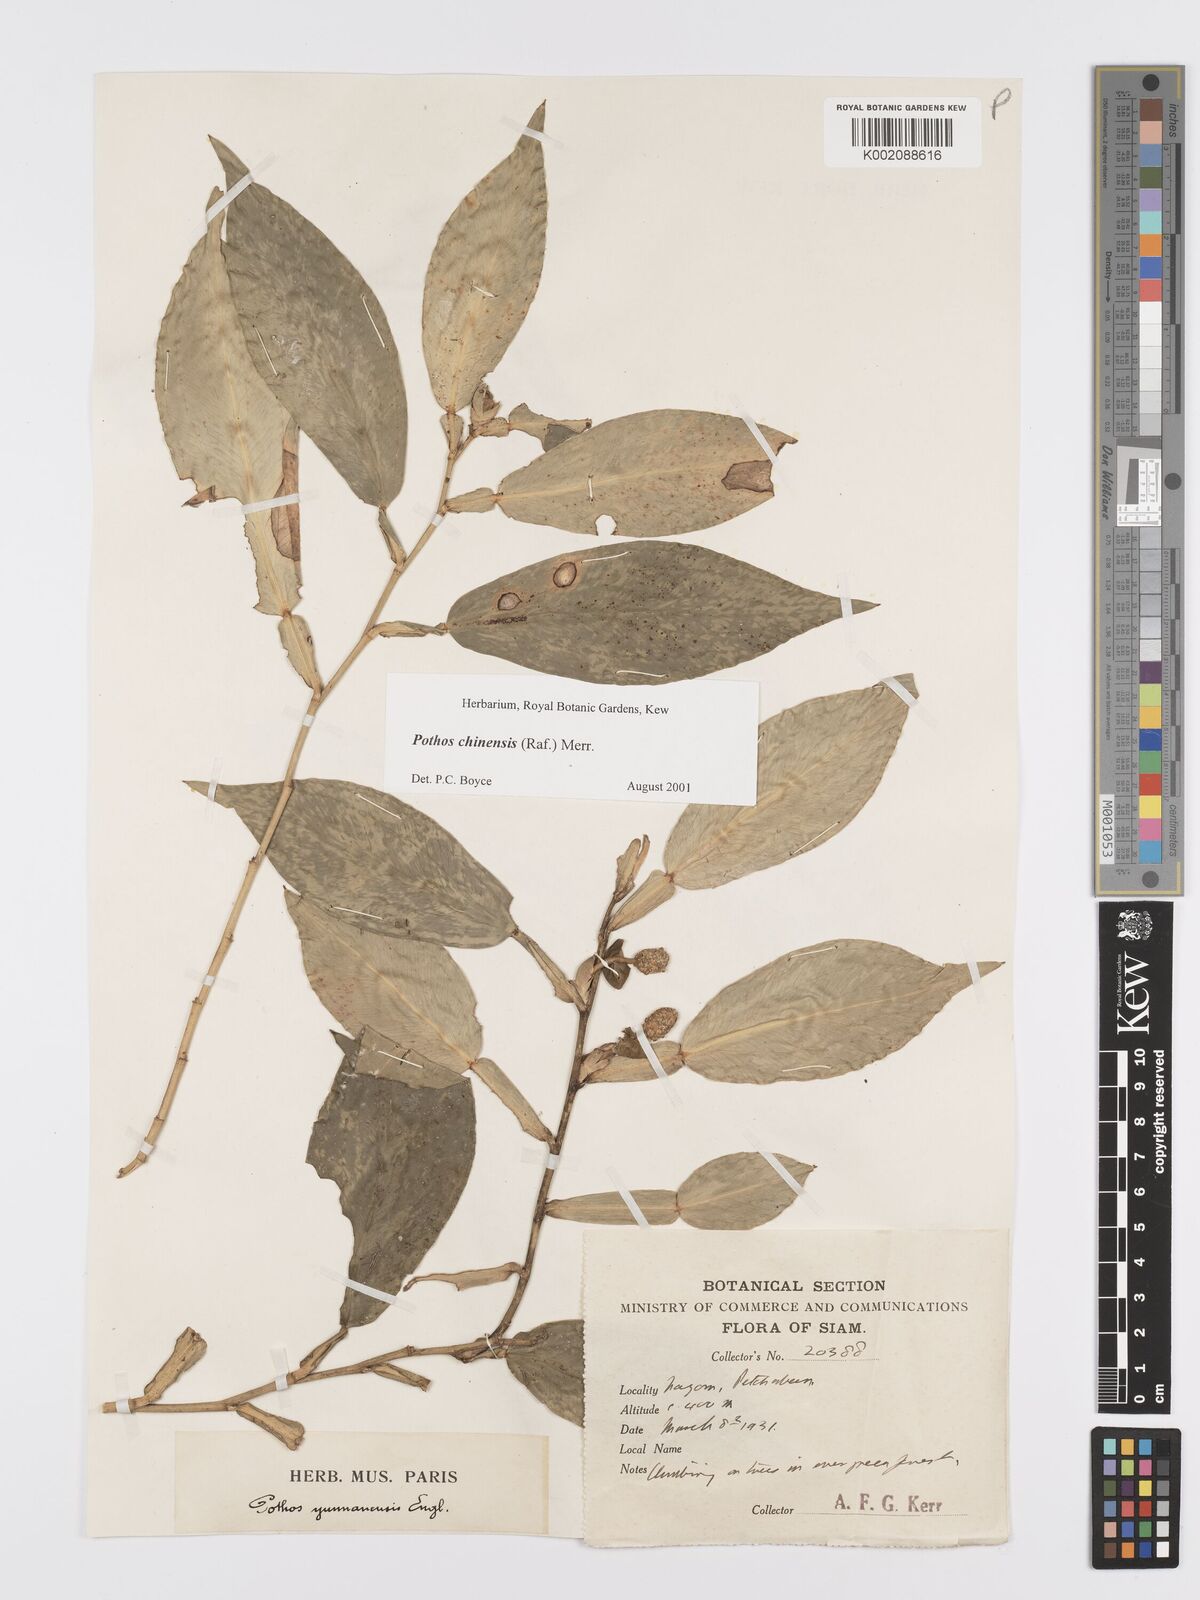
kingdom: Plantae
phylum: Tracheophyta
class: Liliopsida
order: Alismatales
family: Araceae
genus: Pothos
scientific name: Pothos chinensis
